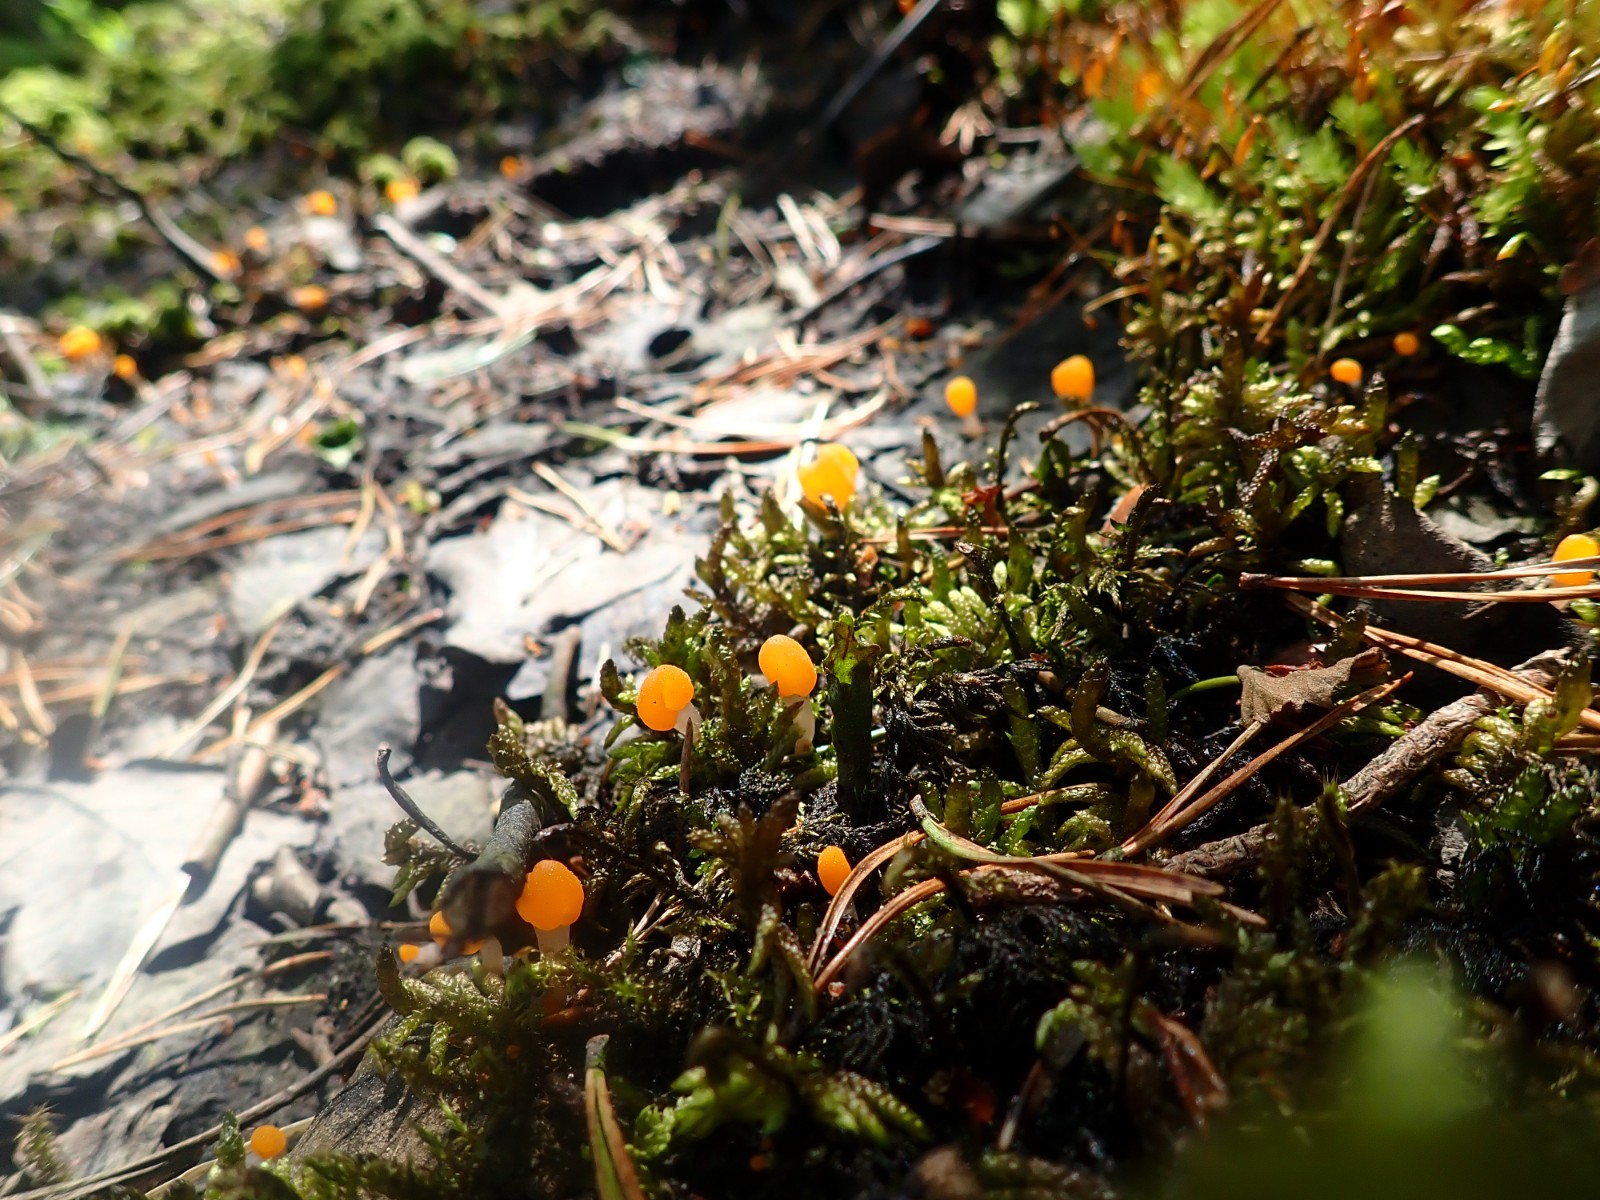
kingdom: Fungi
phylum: Ascomycota
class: Leotiomycetes
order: Helotiales
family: Cenangiaceae
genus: Mitrula
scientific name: Mitrula paludosa
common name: gul nøkketunge
